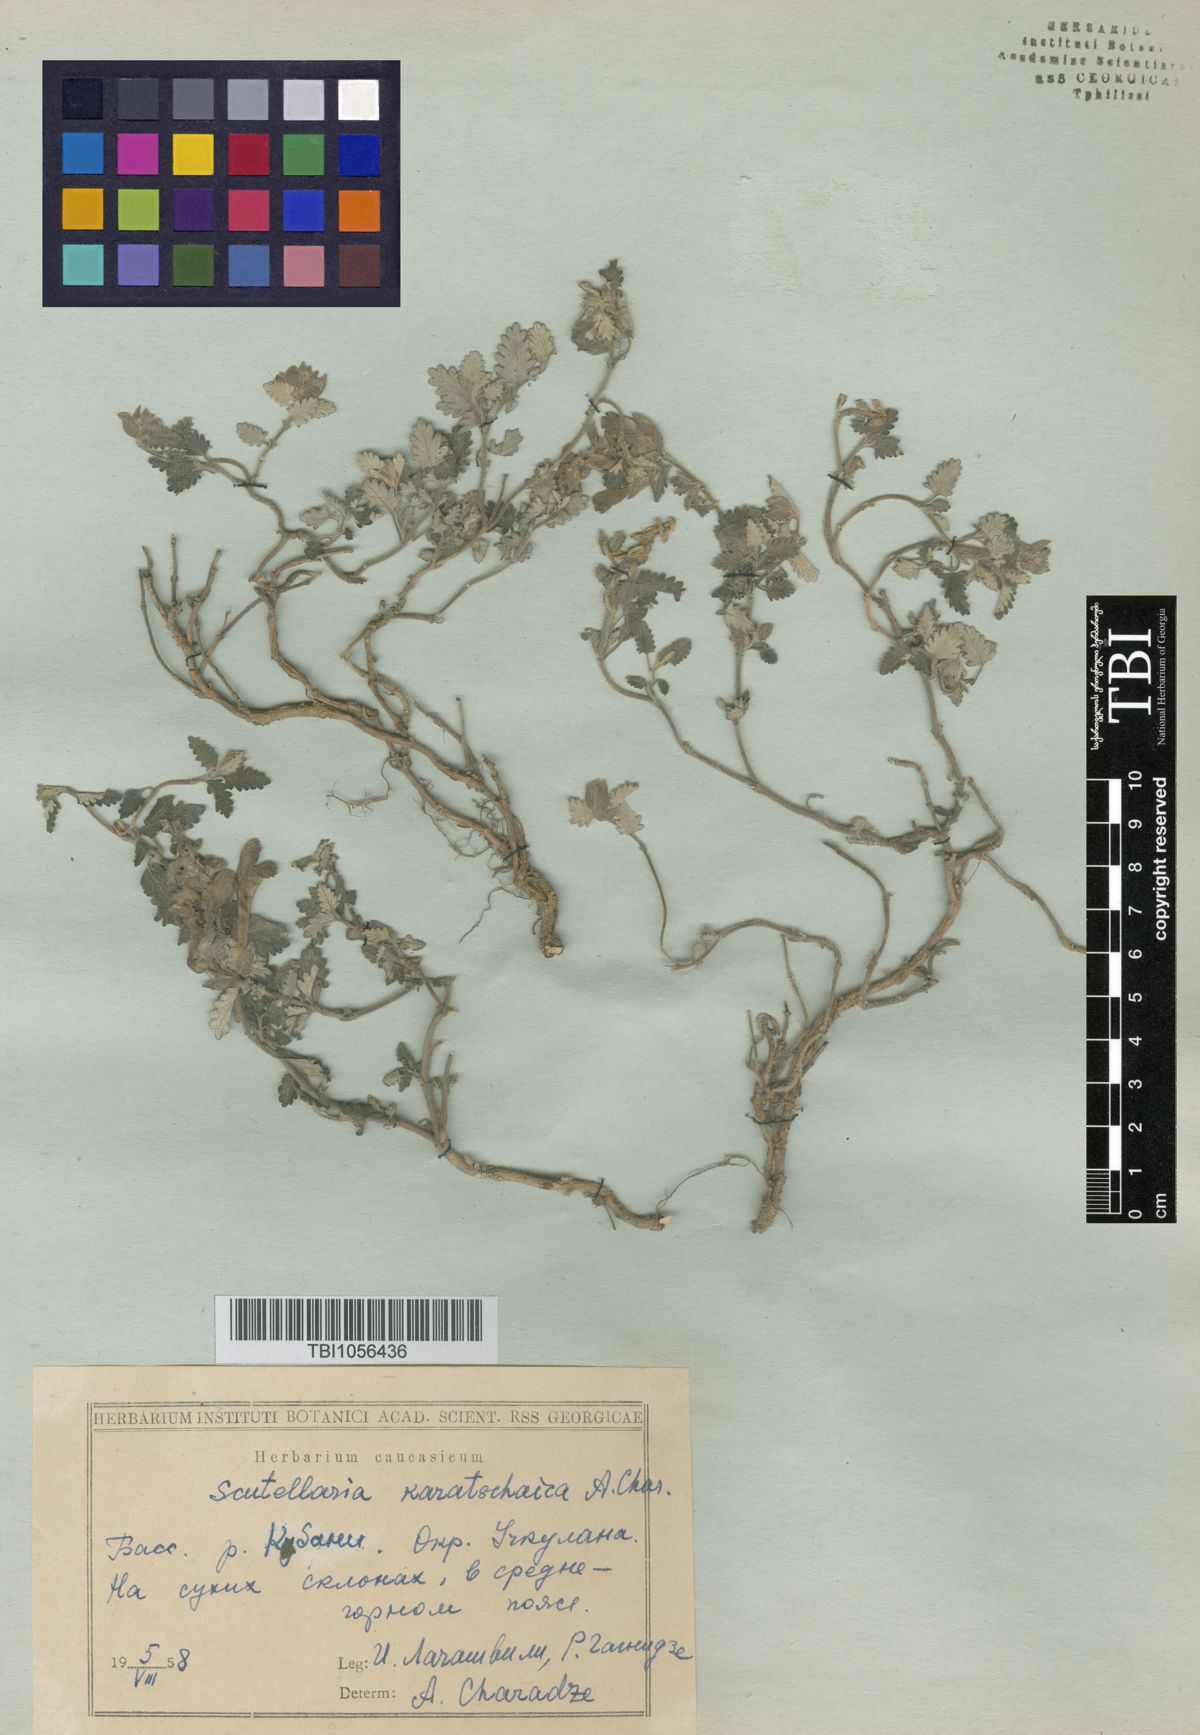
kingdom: Plantae
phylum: Tracheophyta
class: Magnoliopsida
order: Lamiales
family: Lamiaceae
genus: Scutellaria
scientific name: Scutellaria orientalis
